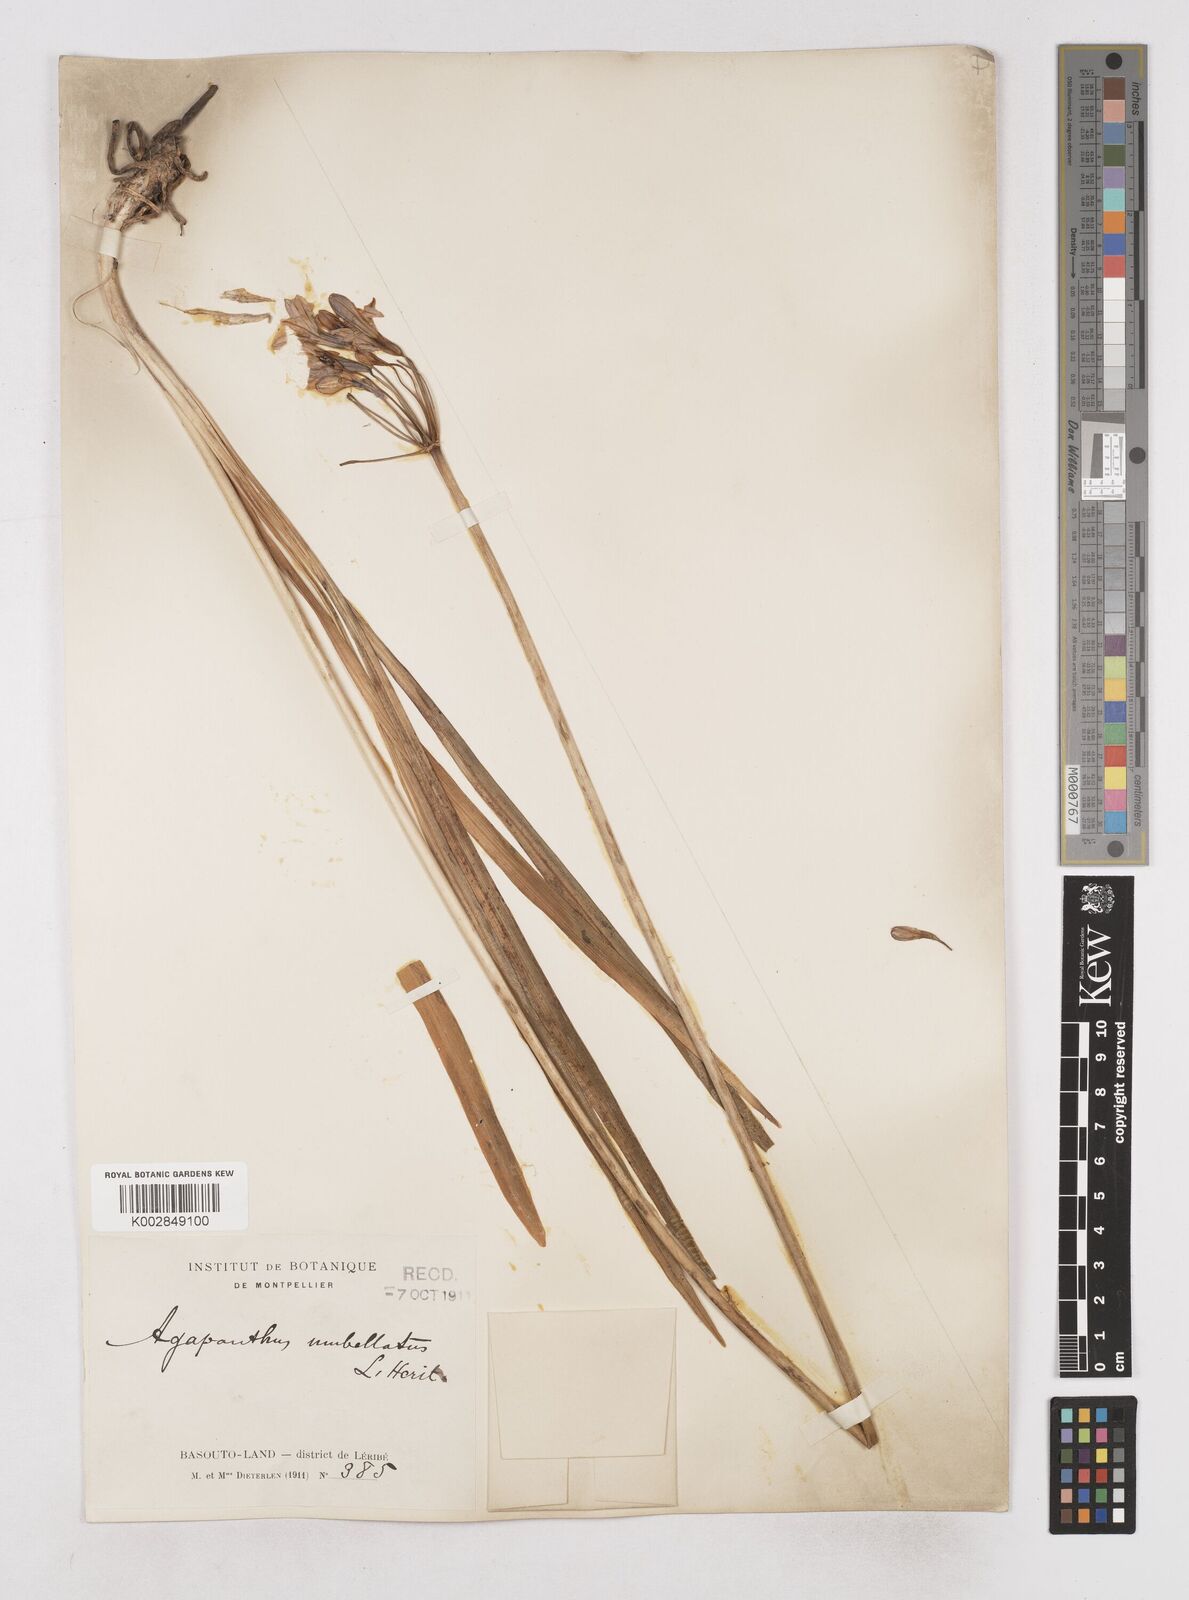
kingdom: Plantae
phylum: Tracheophyta
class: Liliopsida
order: Asparagales
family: Amaryllidaceae
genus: Agapanthus
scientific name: Agapanthus campanulatus
